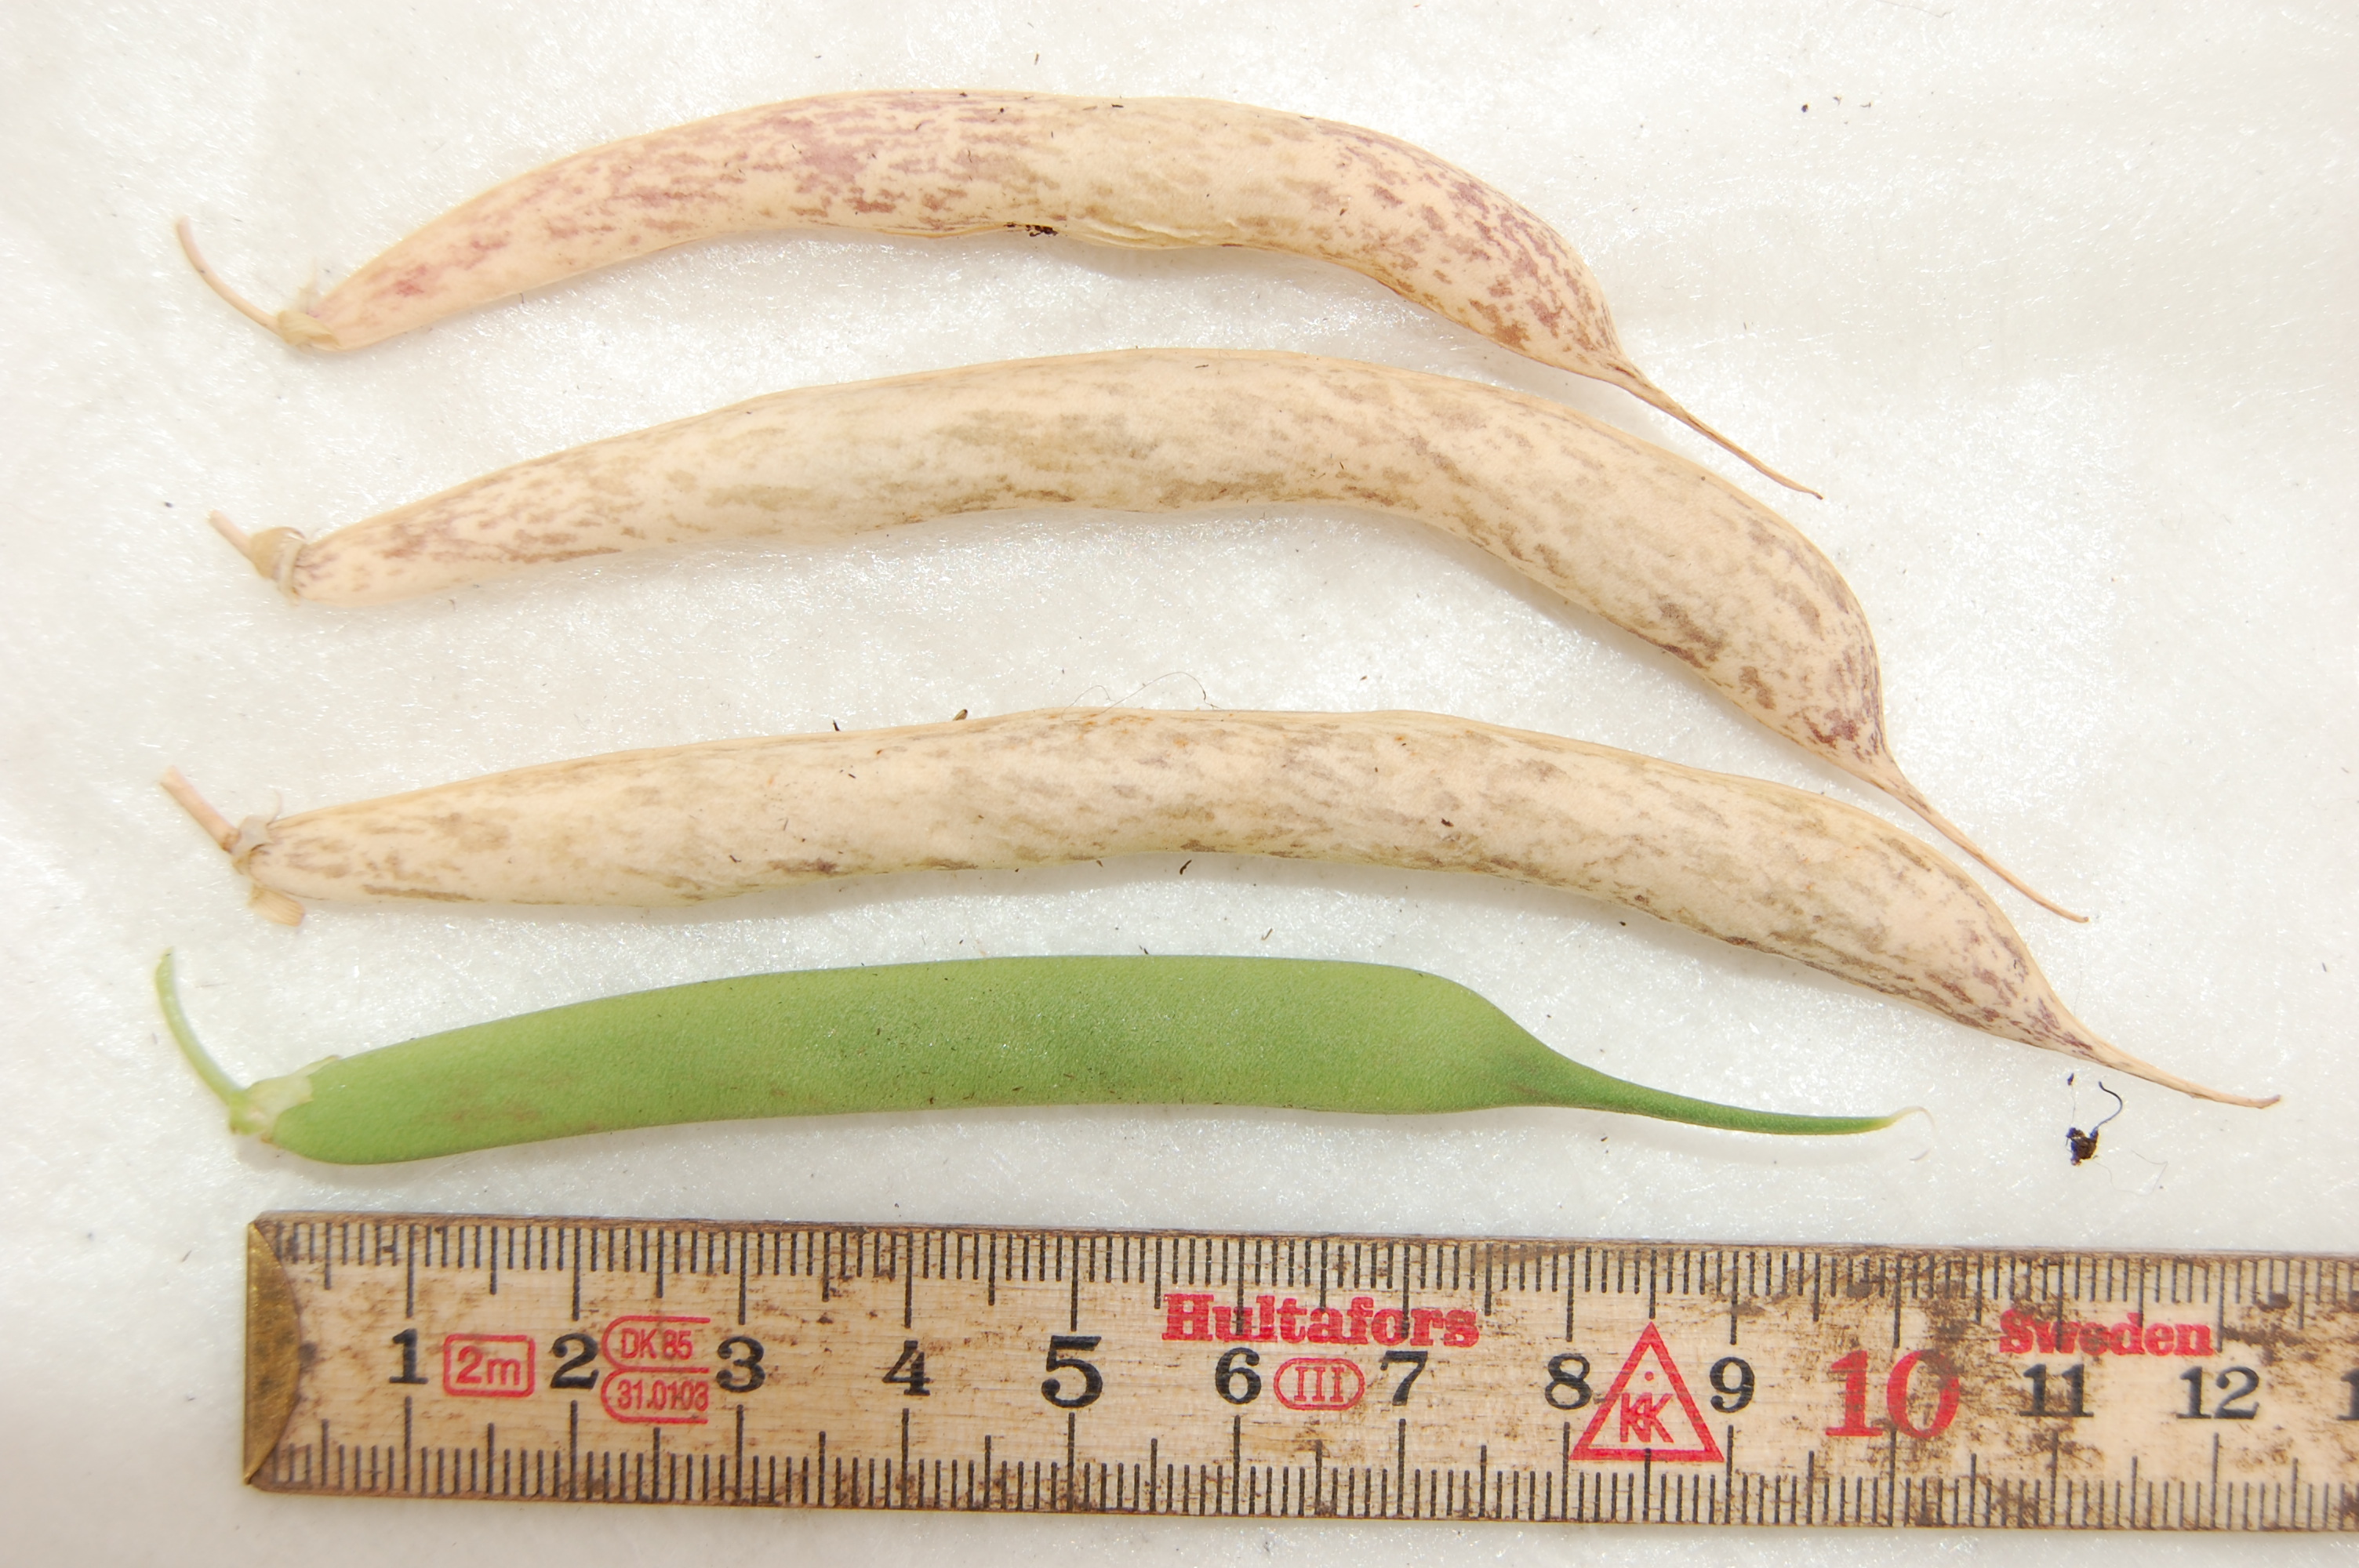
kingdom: Plantae
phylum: Tracheophyta
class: Magnoliopsida
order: Fabales
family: Fabaceae
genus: Phaseolus
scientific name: Phaseolus vulgaris
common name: Bean
